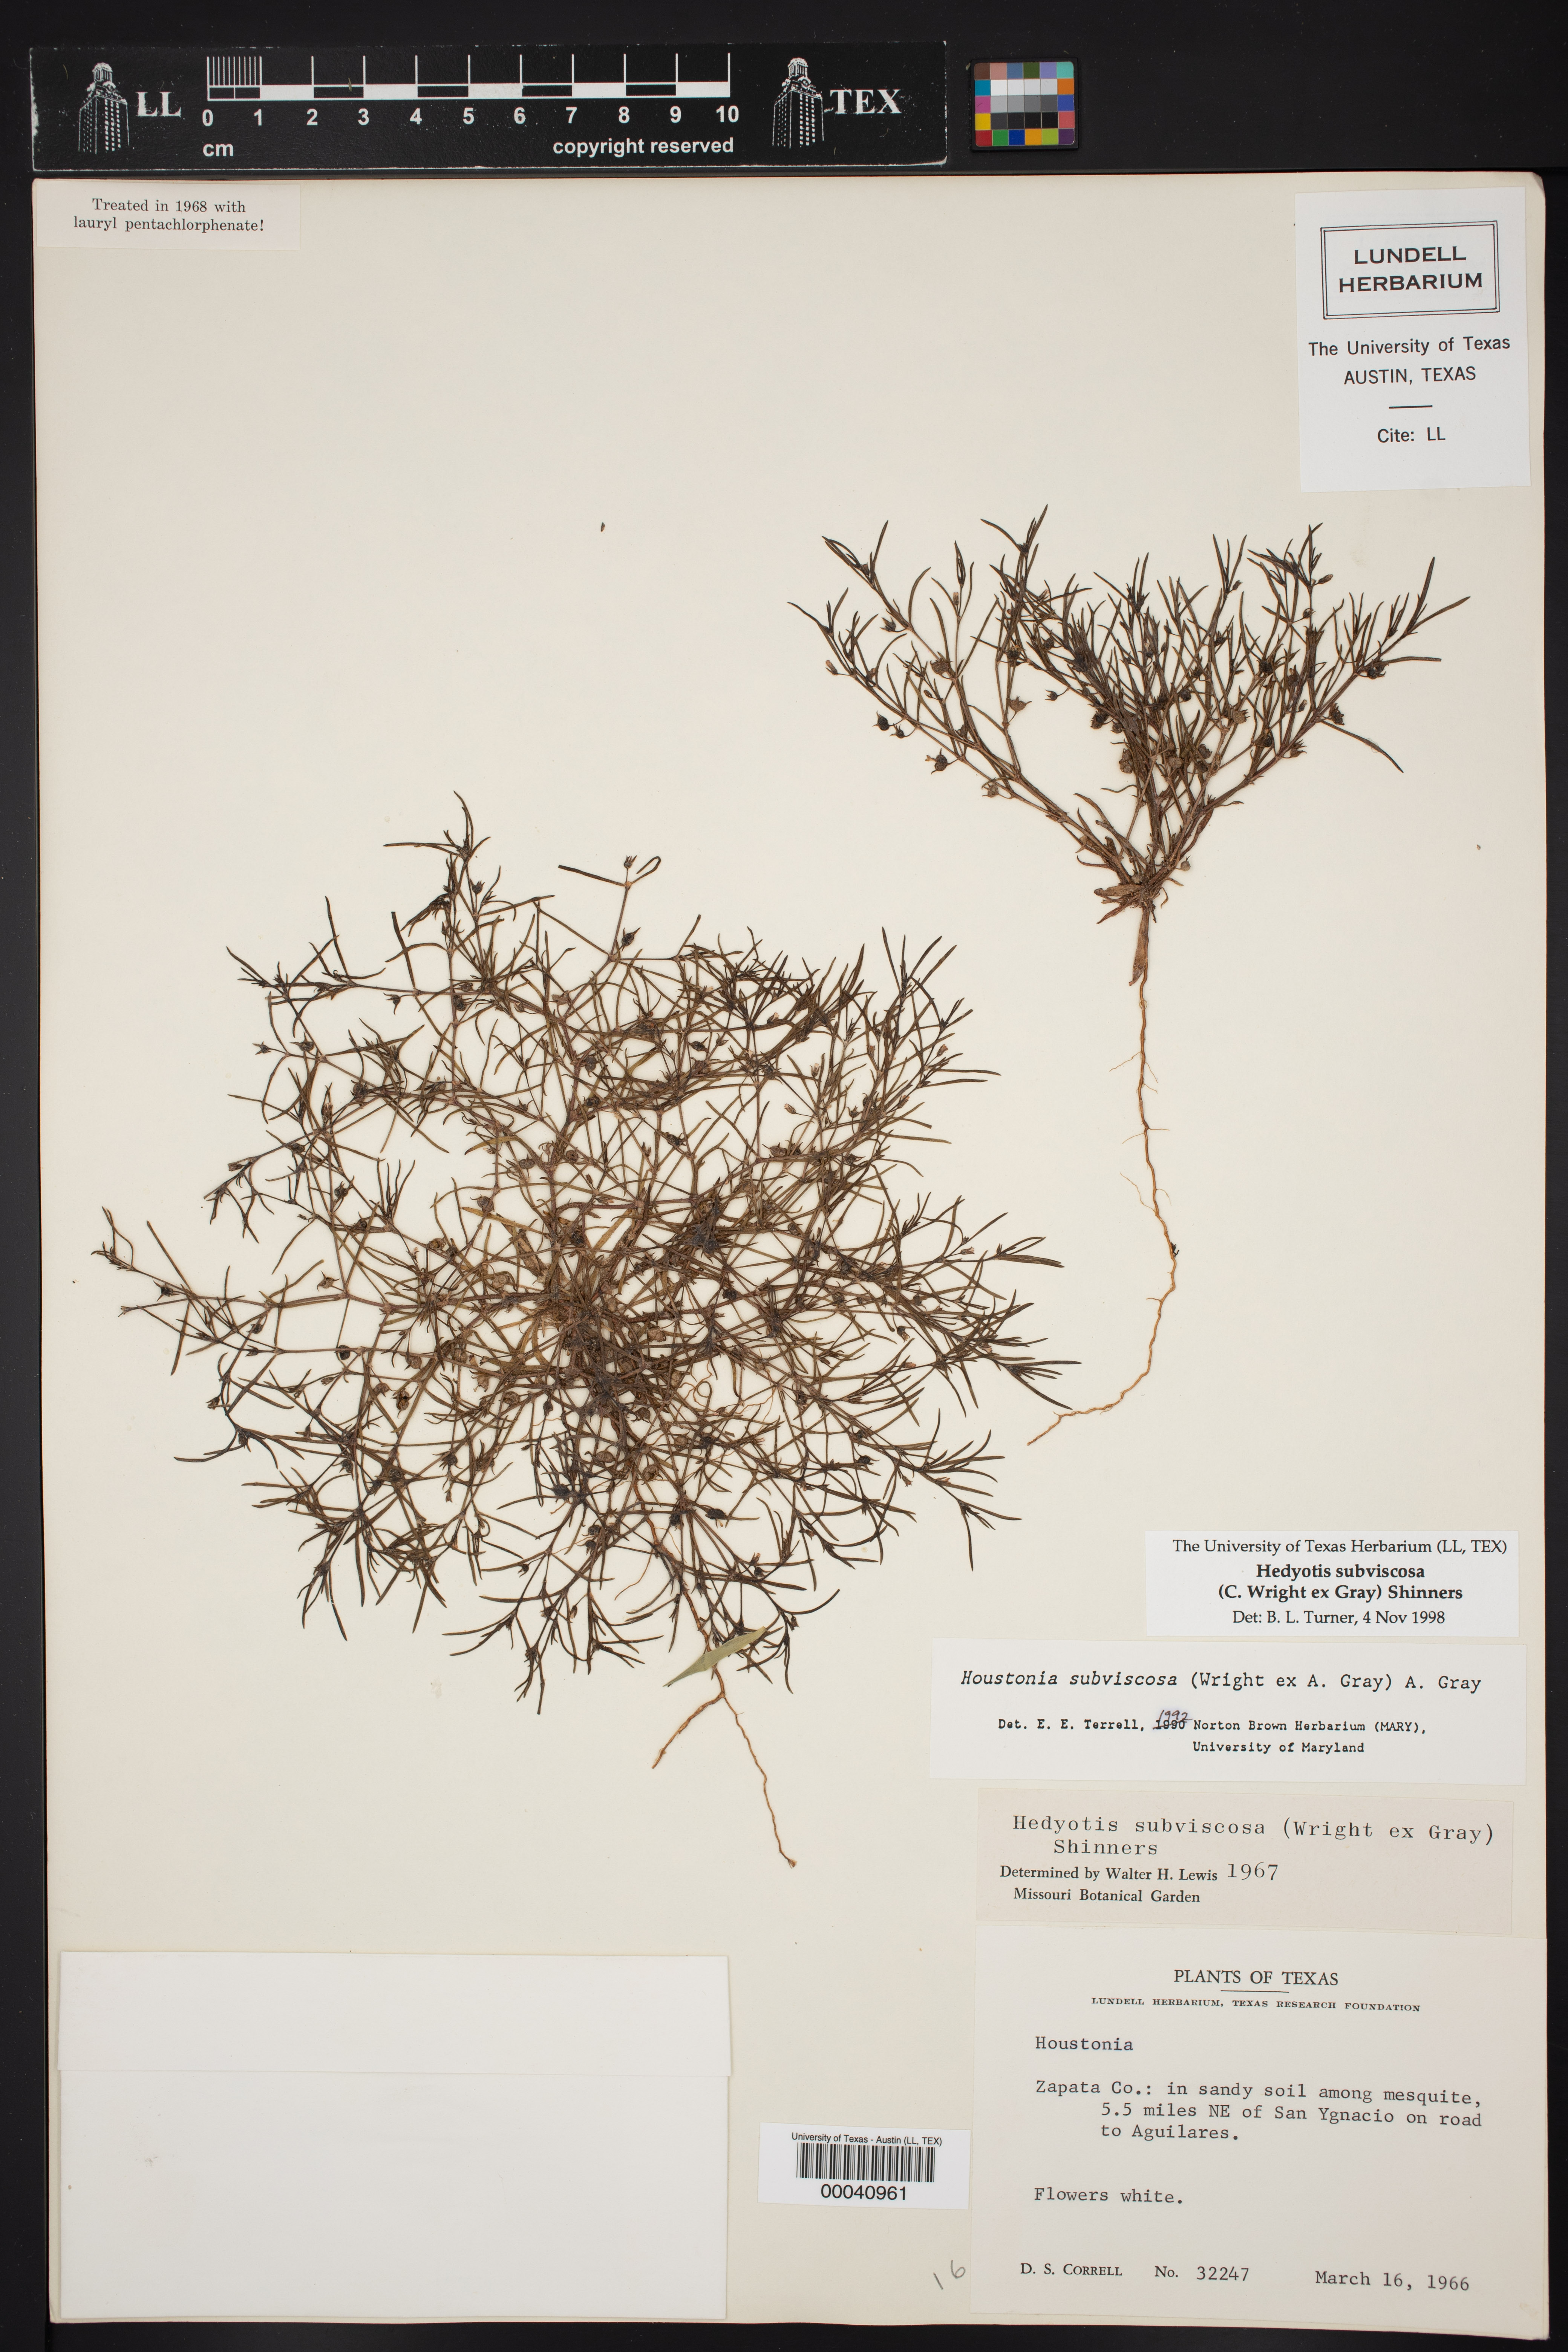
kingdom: Plantae
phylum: Tracheophyta
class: Magnoliopsida
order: Gentianales
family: Rubiaceae
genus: Houstonia
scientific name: Houstonia subviscosa
